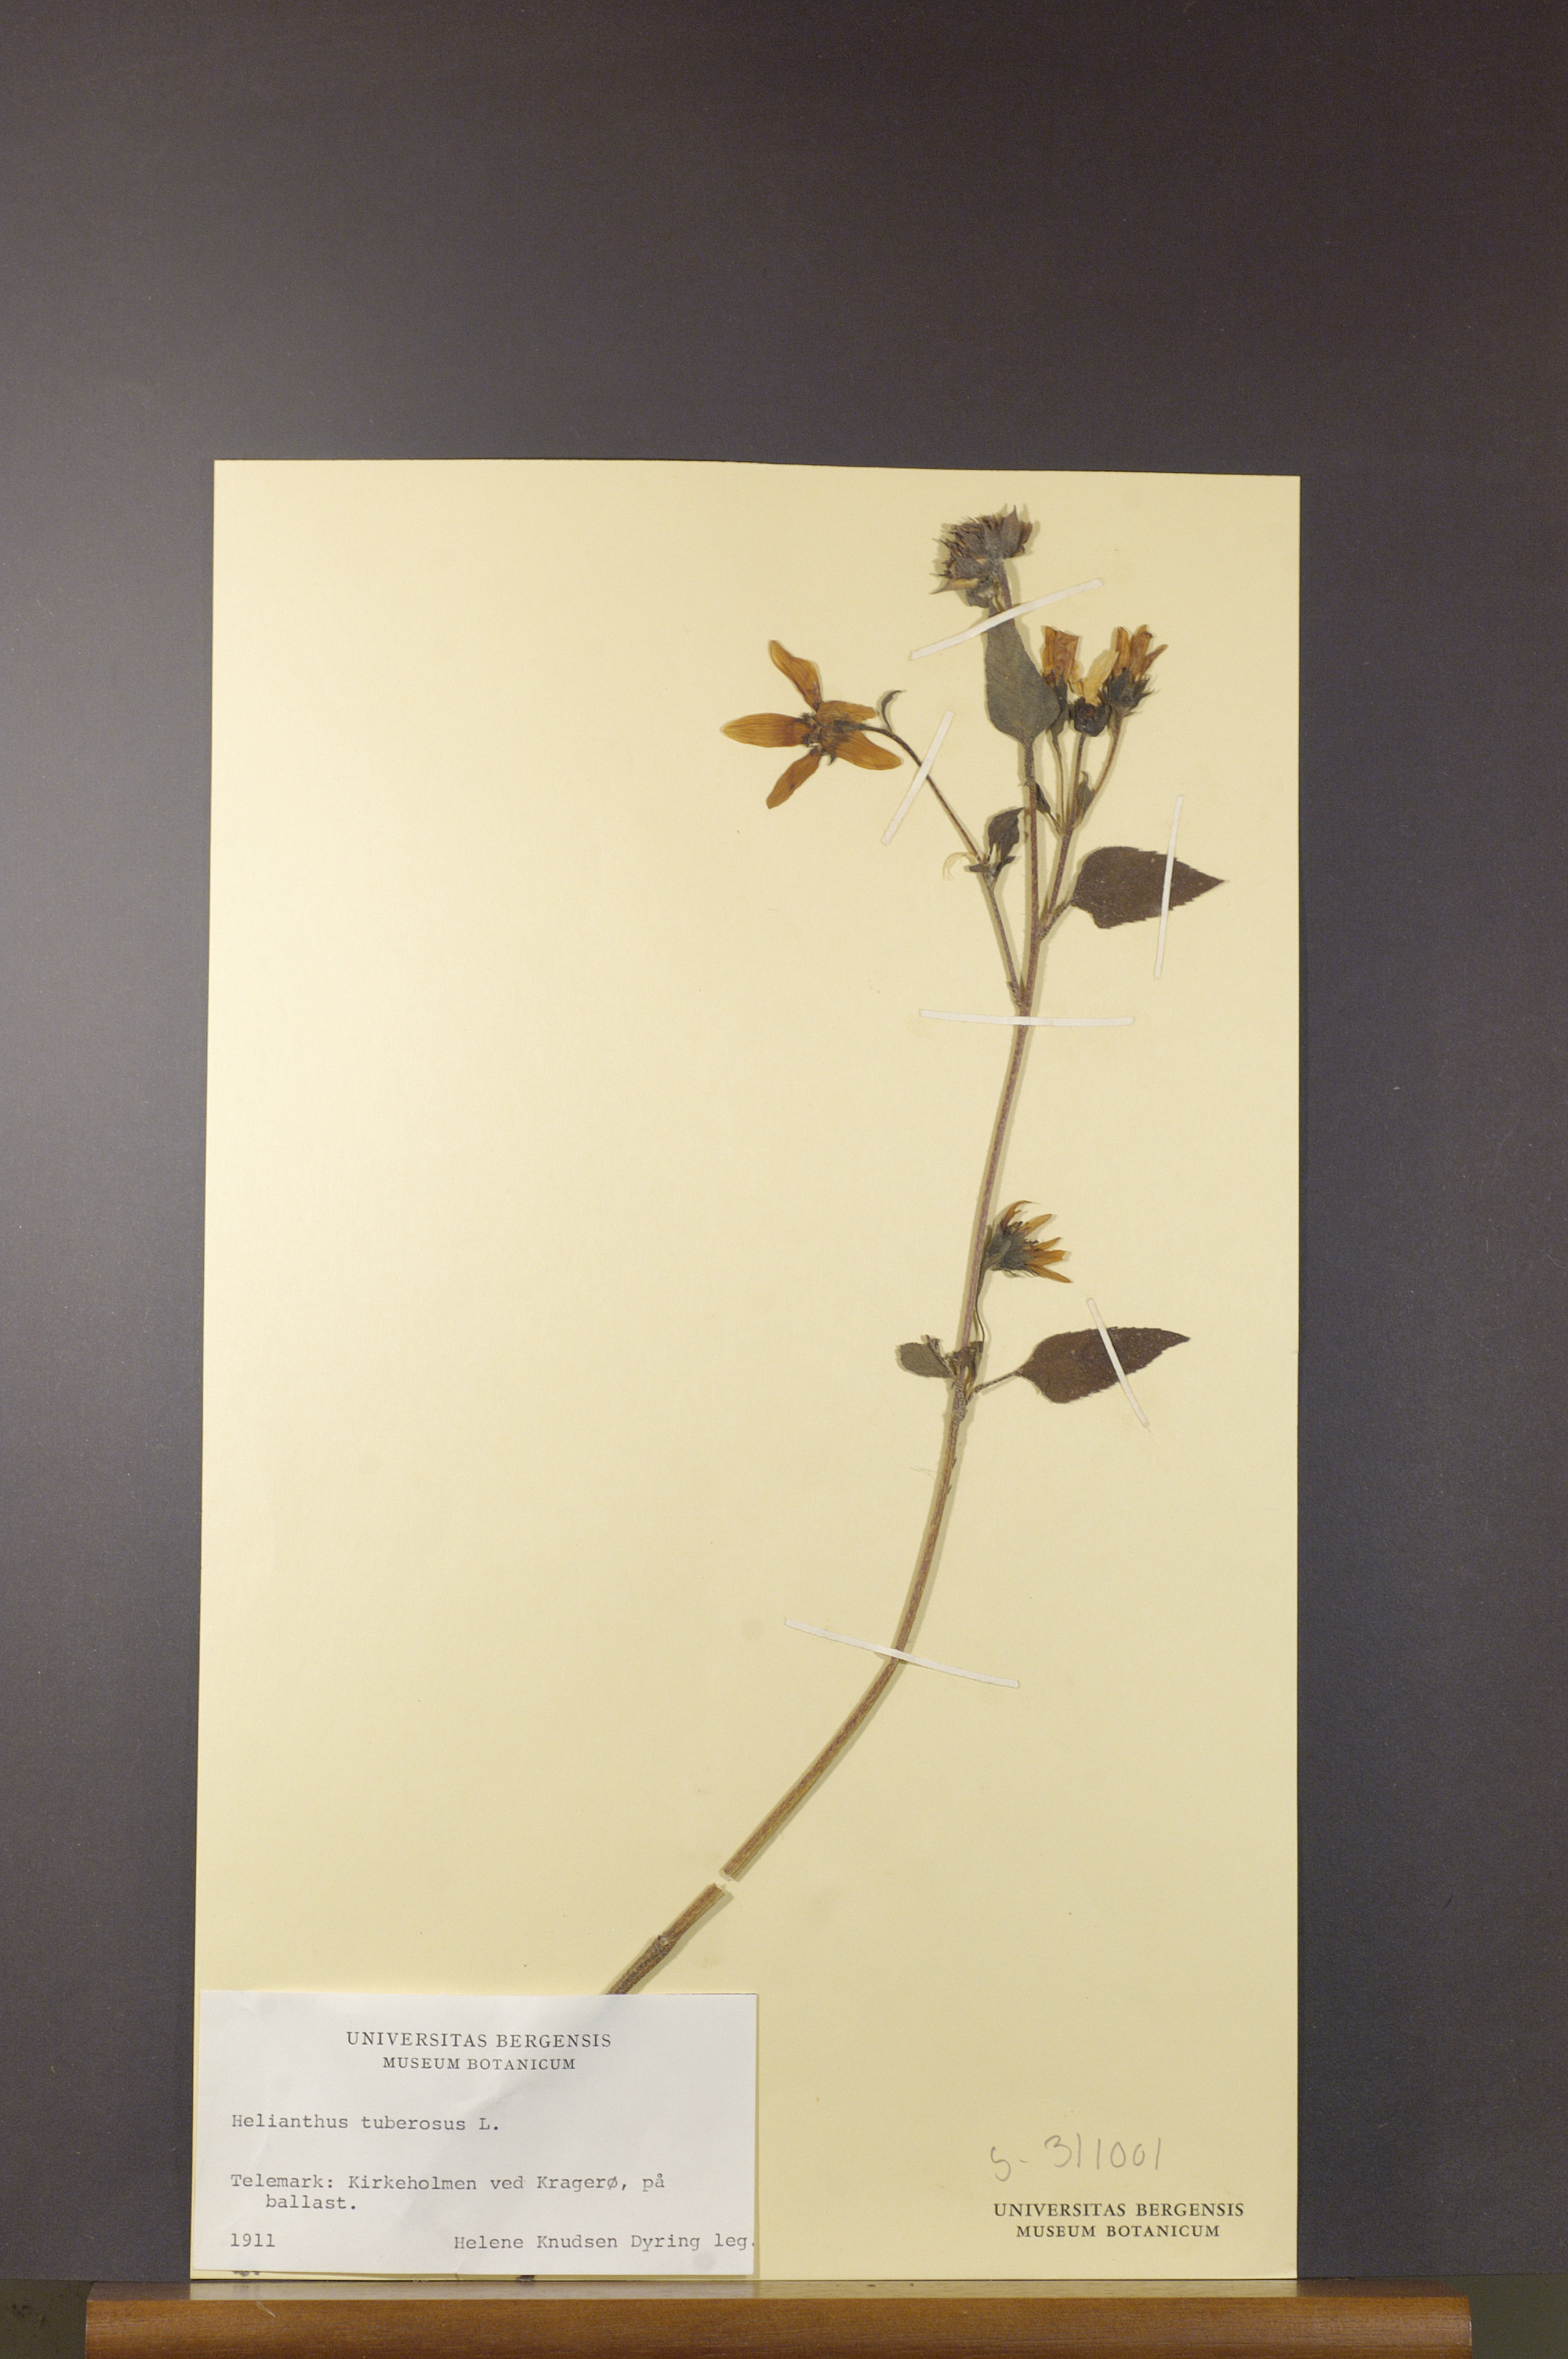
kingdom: Plantae
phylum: Tracheophyta
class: Magnoliopsida
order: Asterales
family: Asteraceae
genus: Helianthus
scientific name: Helianthus tuberosus
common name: Jerusalem artichoke
